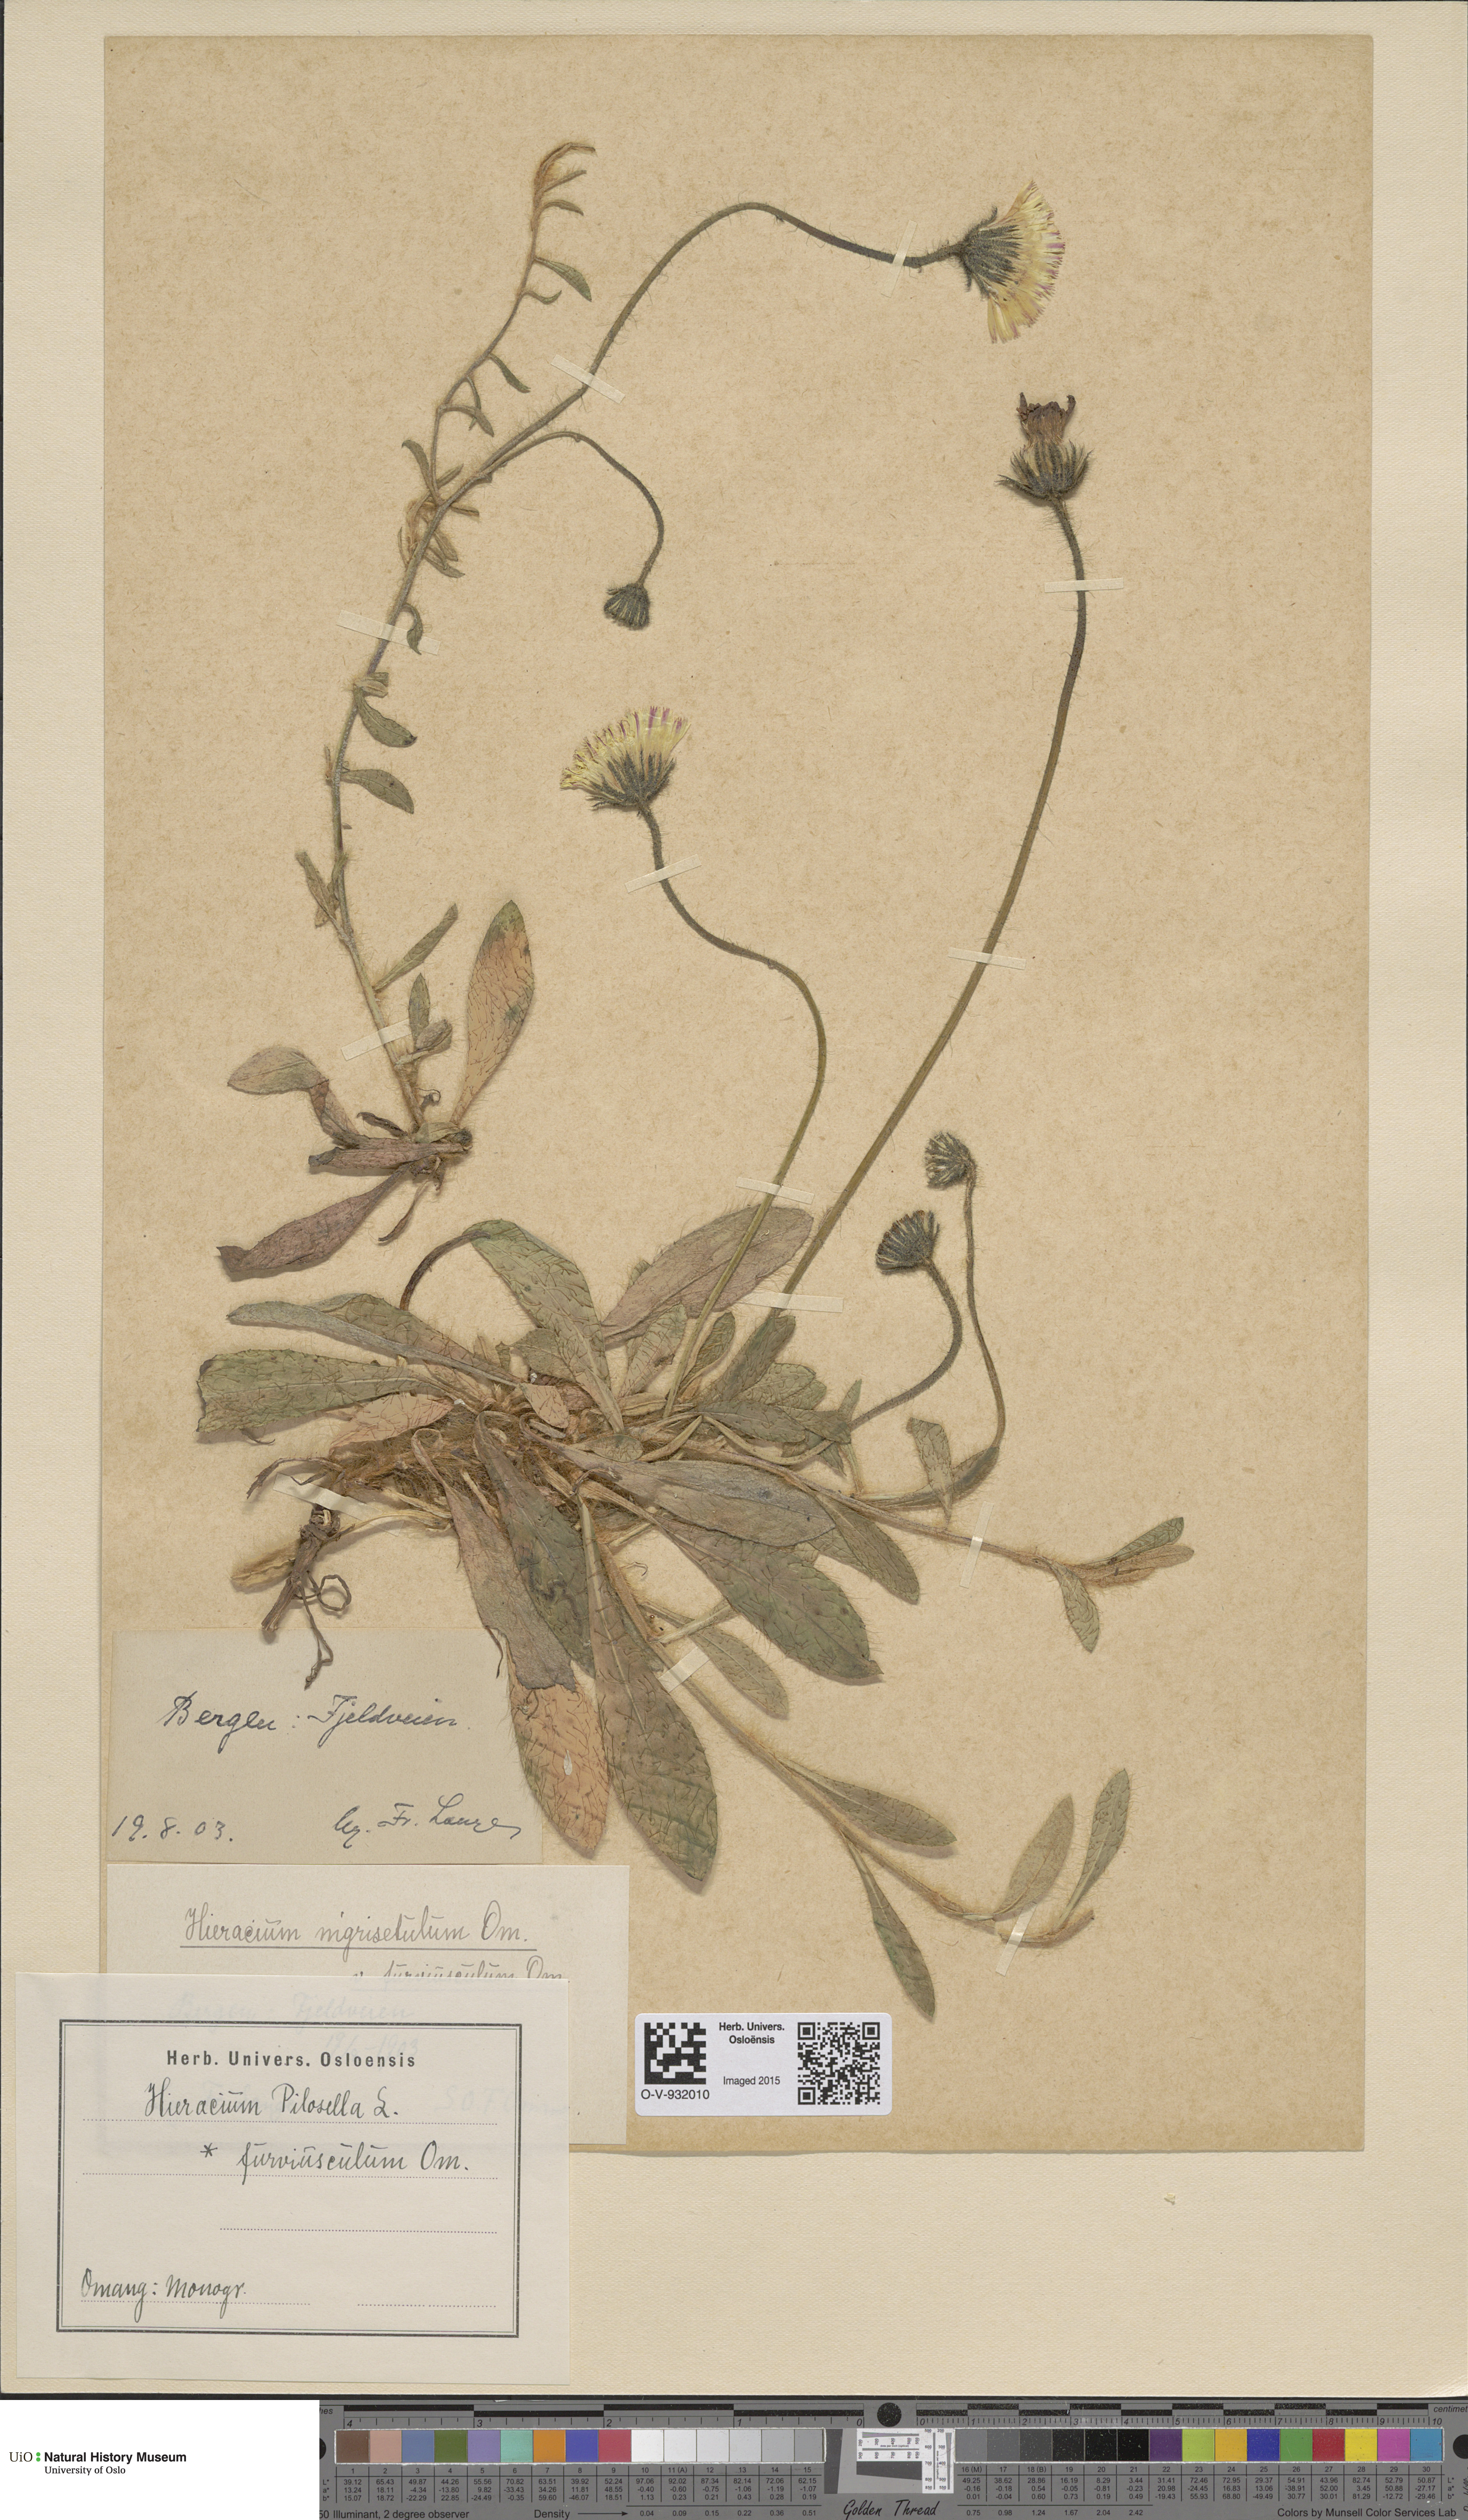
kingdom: Plantae
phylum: Tracheophyta
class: Magnoliopsida
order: Asterales
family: Asteraceae
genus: Pilosella
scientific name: Pilosella officinarum
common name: Mouse-ear hawkweed
